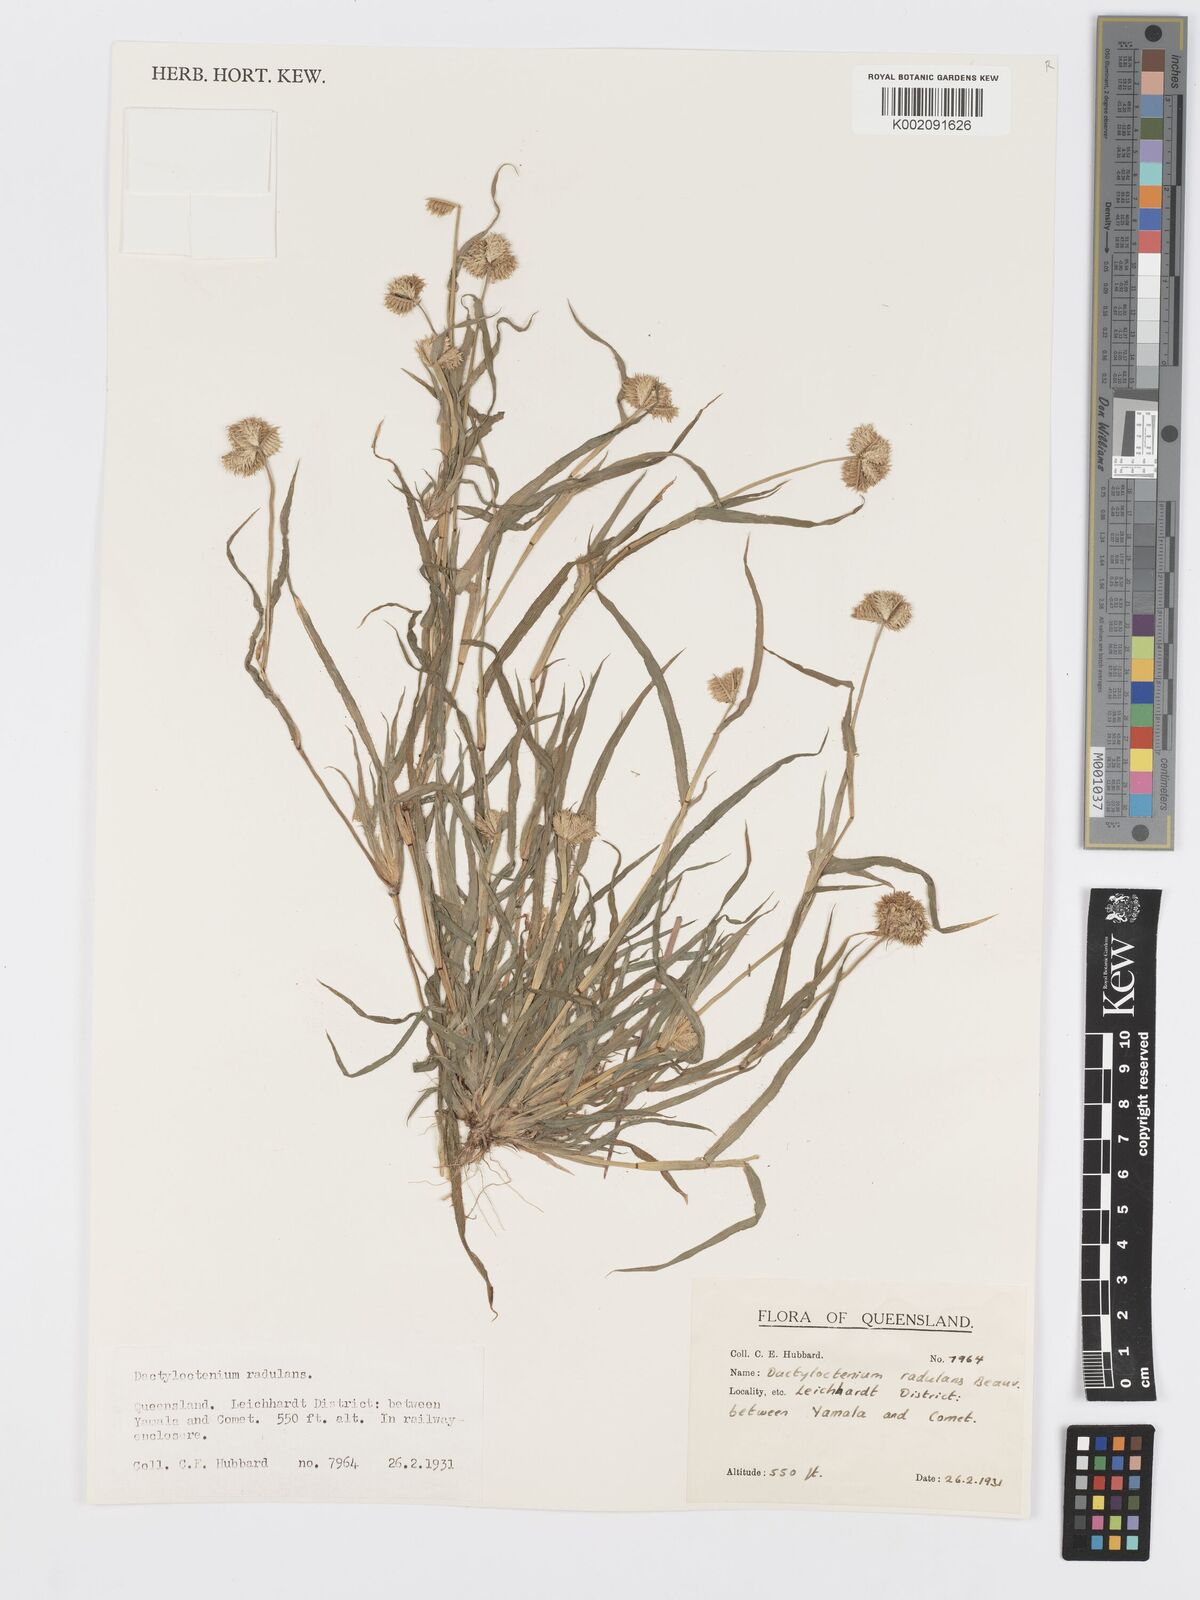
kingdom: Plantae
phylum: Tracheophyta
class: Liliopsida
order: Poales
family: Poaceae
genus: Dactyloctenium
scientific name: Dactyloctenium radulans
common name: Button-grass
